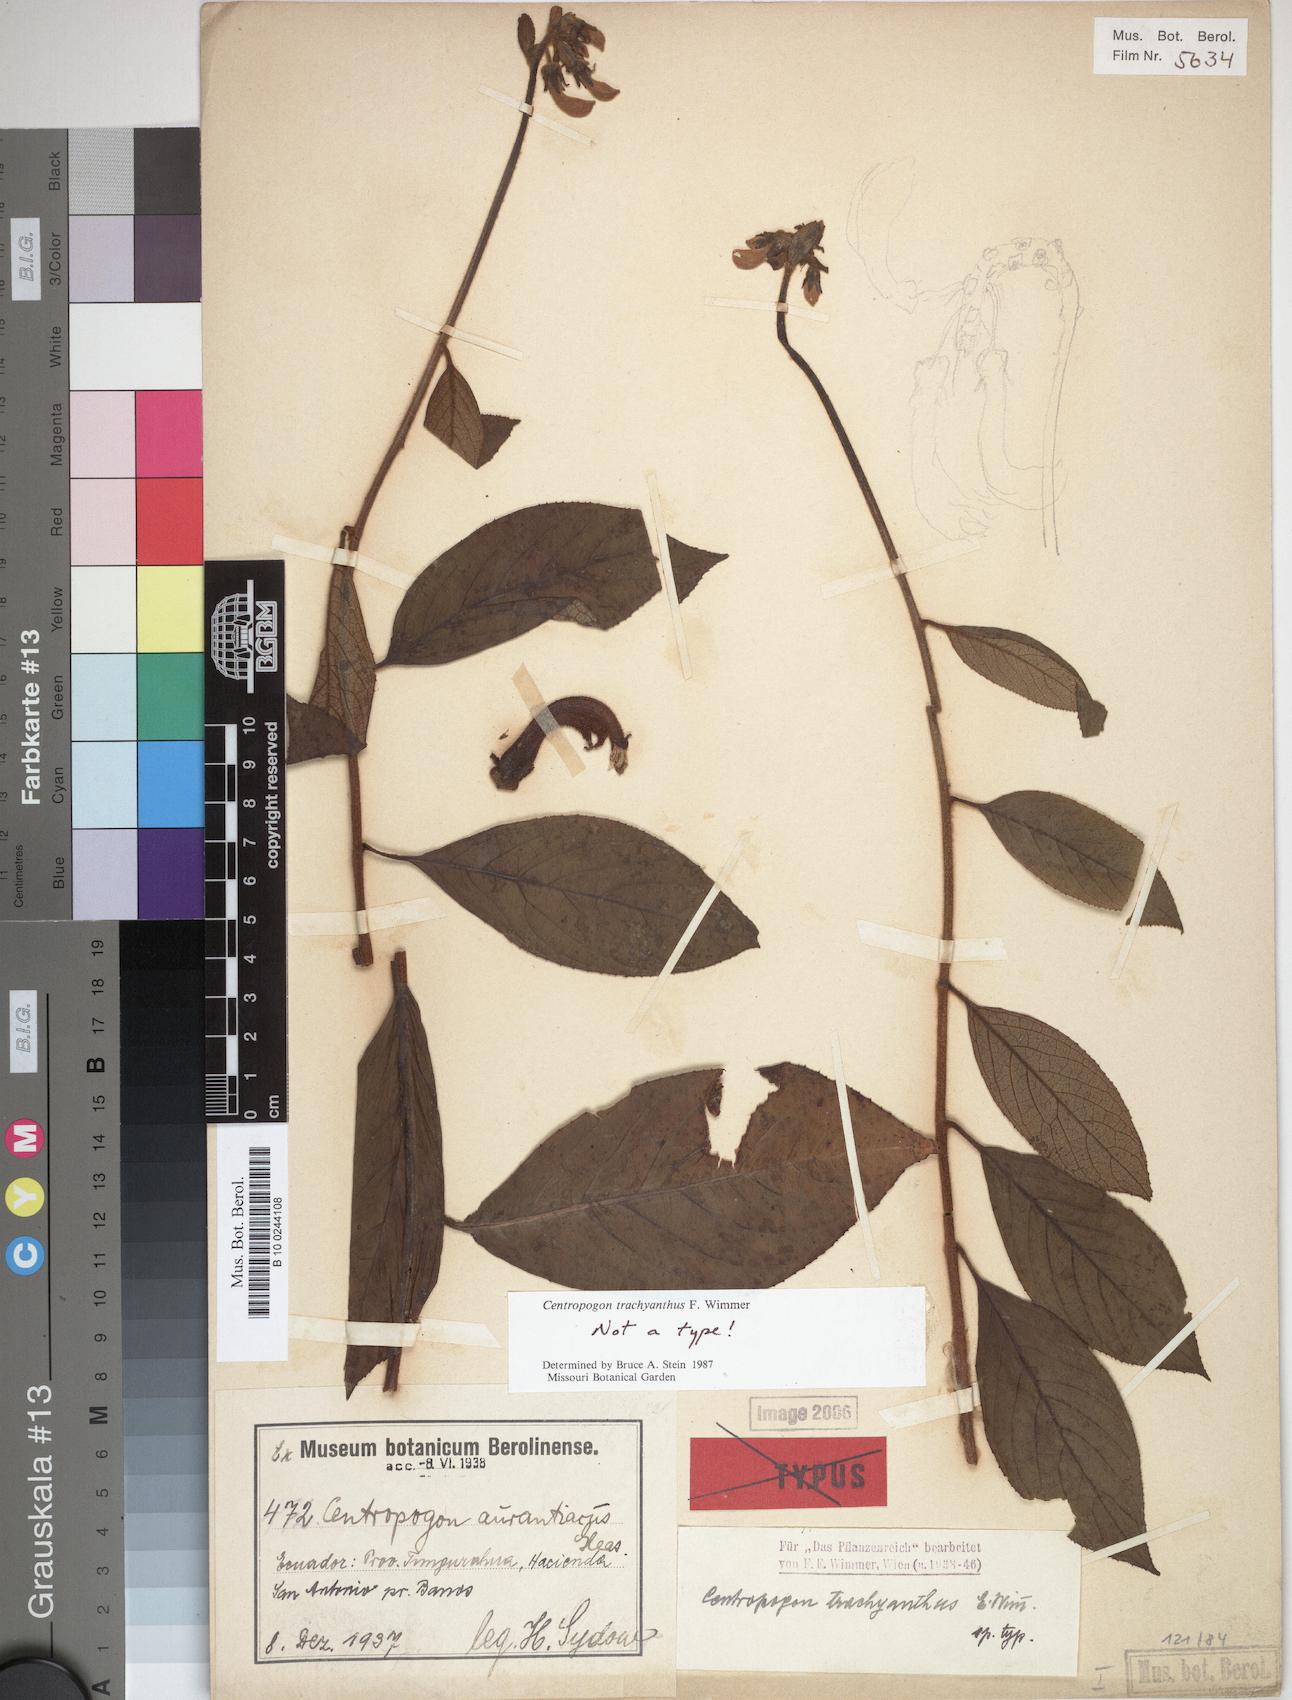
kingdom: Plantae
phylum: Tracheophyta
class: Magnoliopsida
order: Asterales
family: Campanulaceae
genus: Centropogon
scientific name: Centropogon trachyanthus
